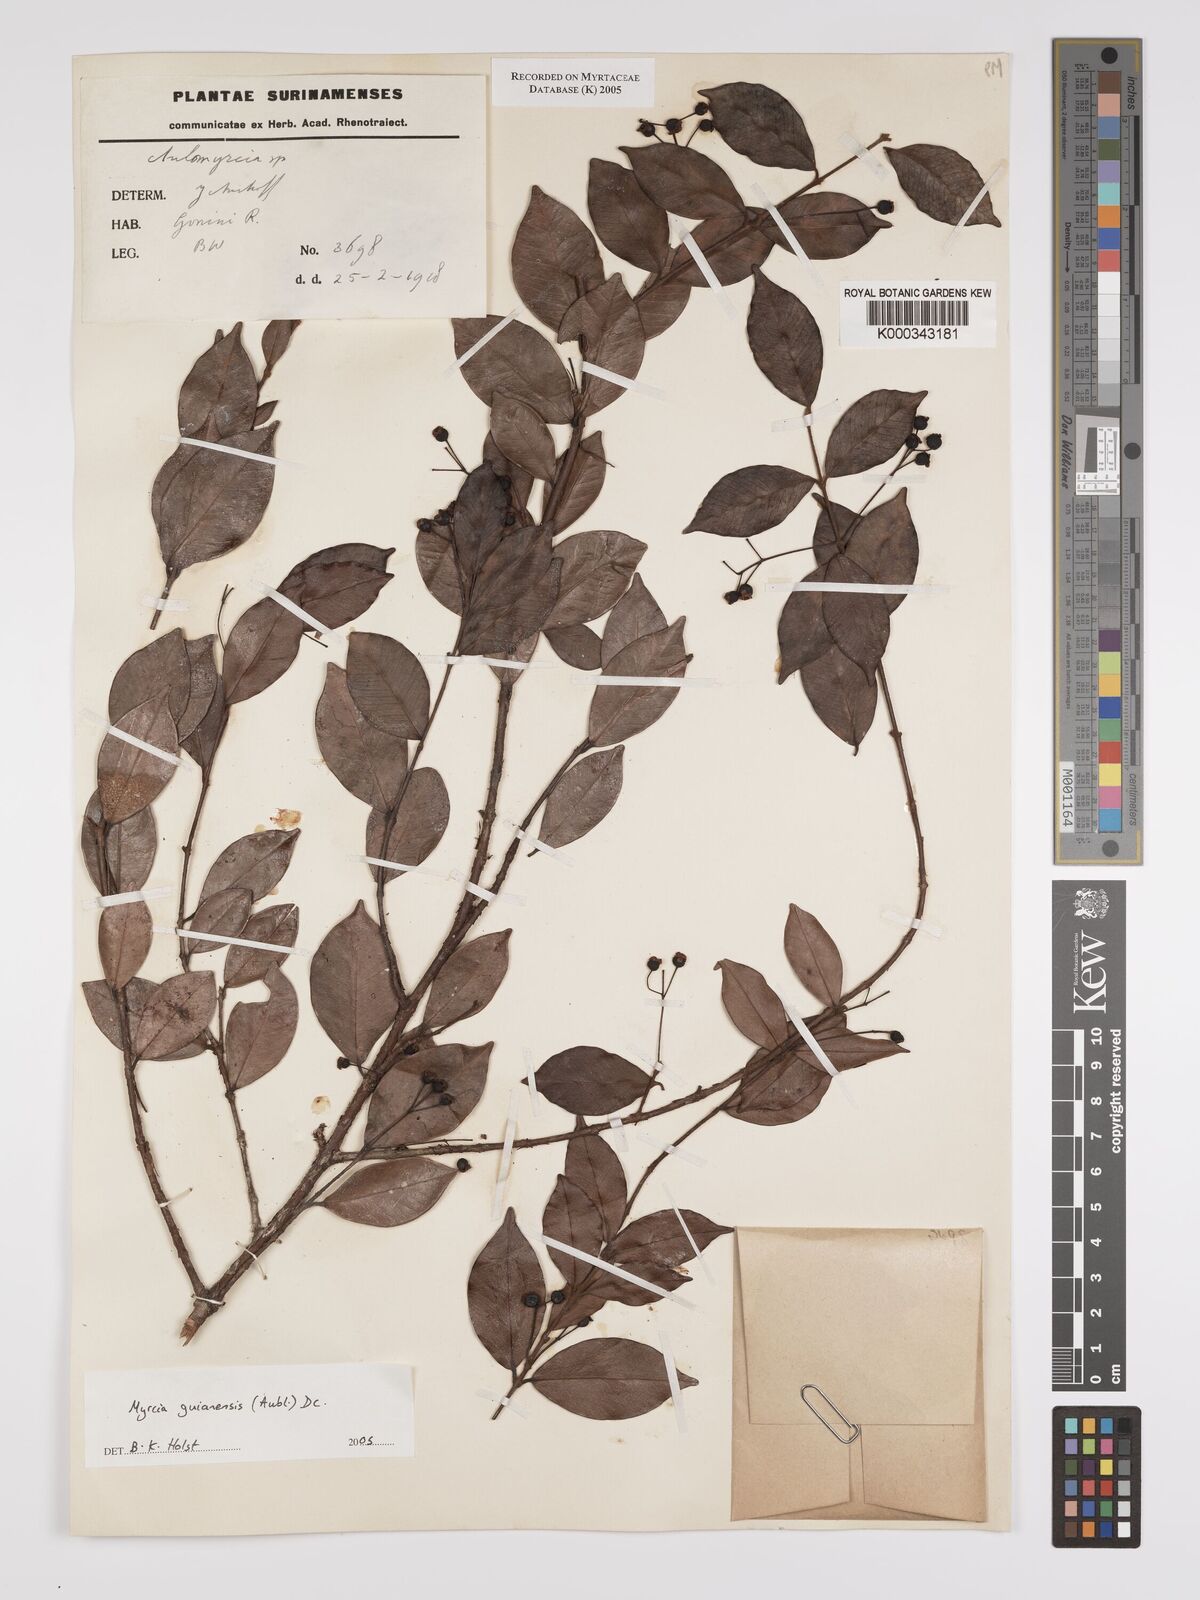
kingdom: Plantae
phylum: Tracheophyta
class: Magnoliopsida
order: Myrtales
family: Myrtaceae
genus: Myrcia
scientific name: Myrcia guianensis
